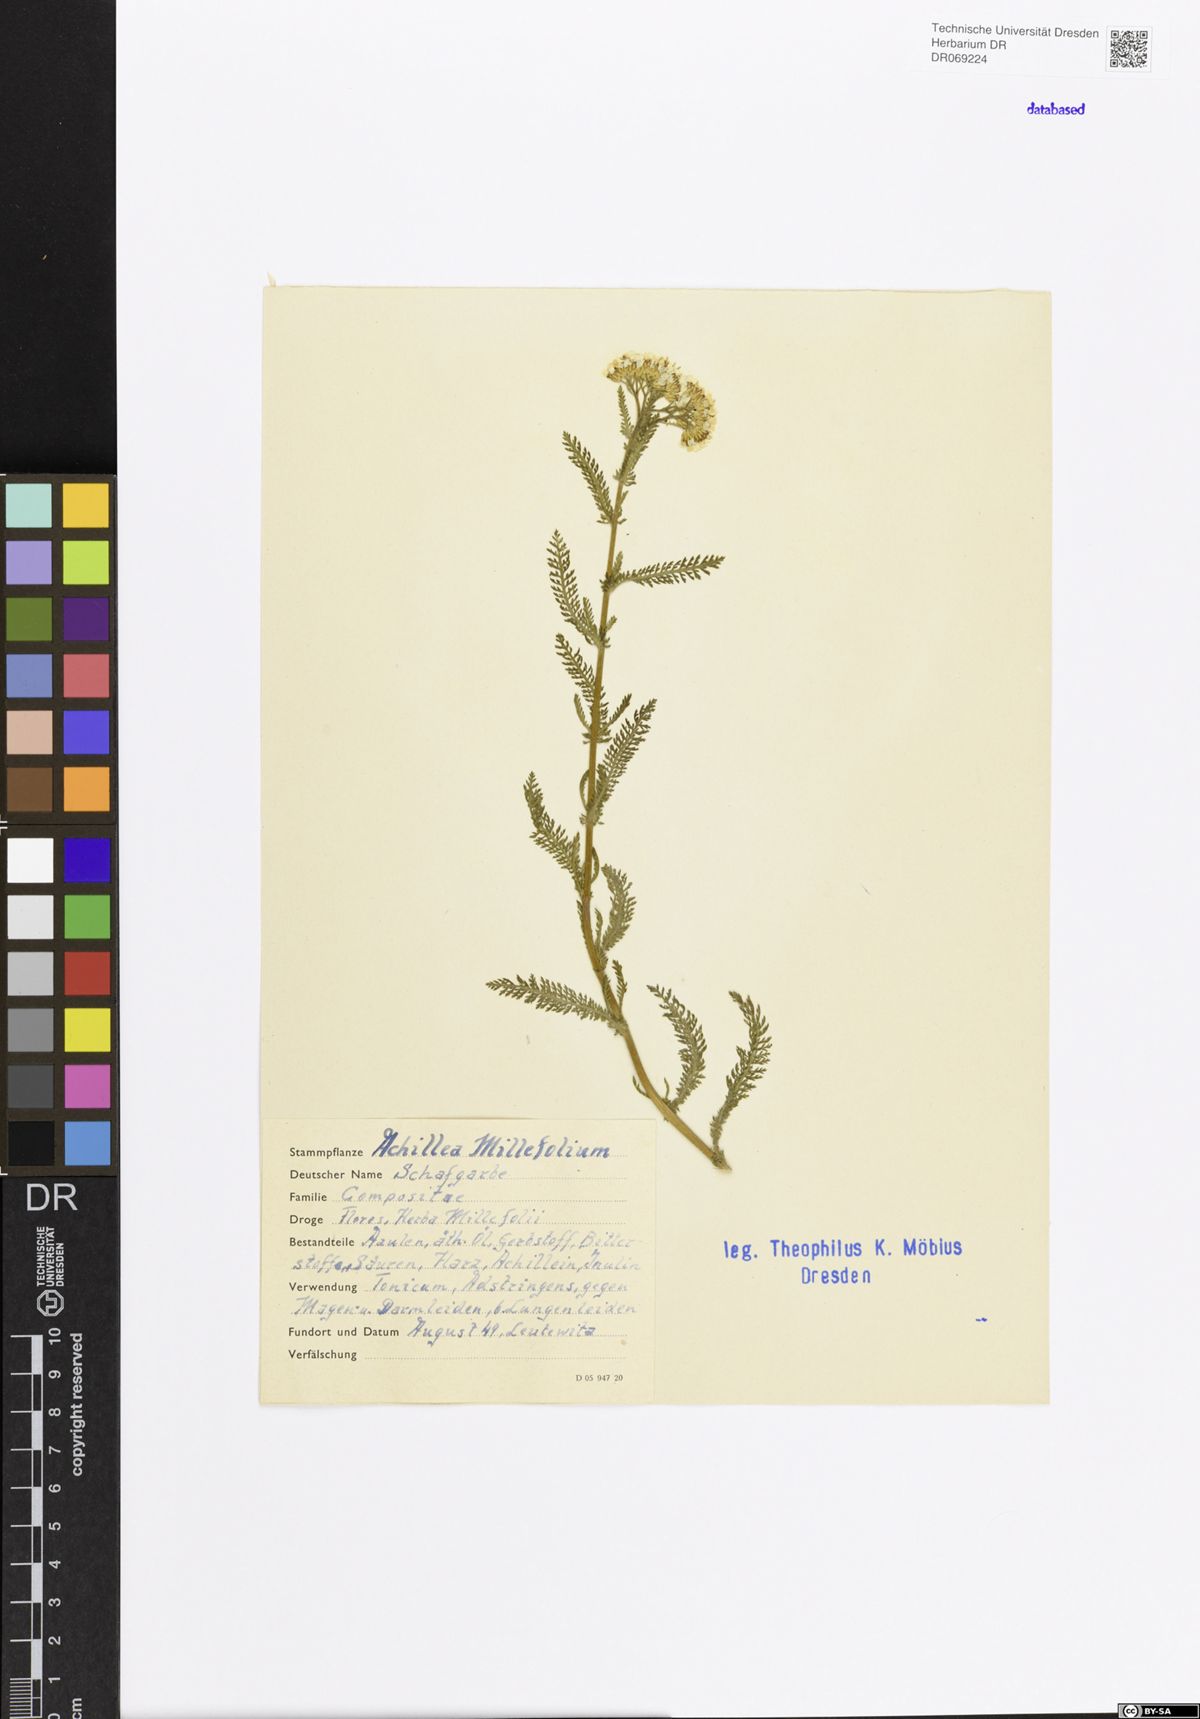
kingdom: Plantae
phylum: Tracheophyta
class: Magnoliopsida
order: Asterales
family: Asteraceae
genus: Achillea
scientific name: Achillea millefolium
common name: Yarrow
